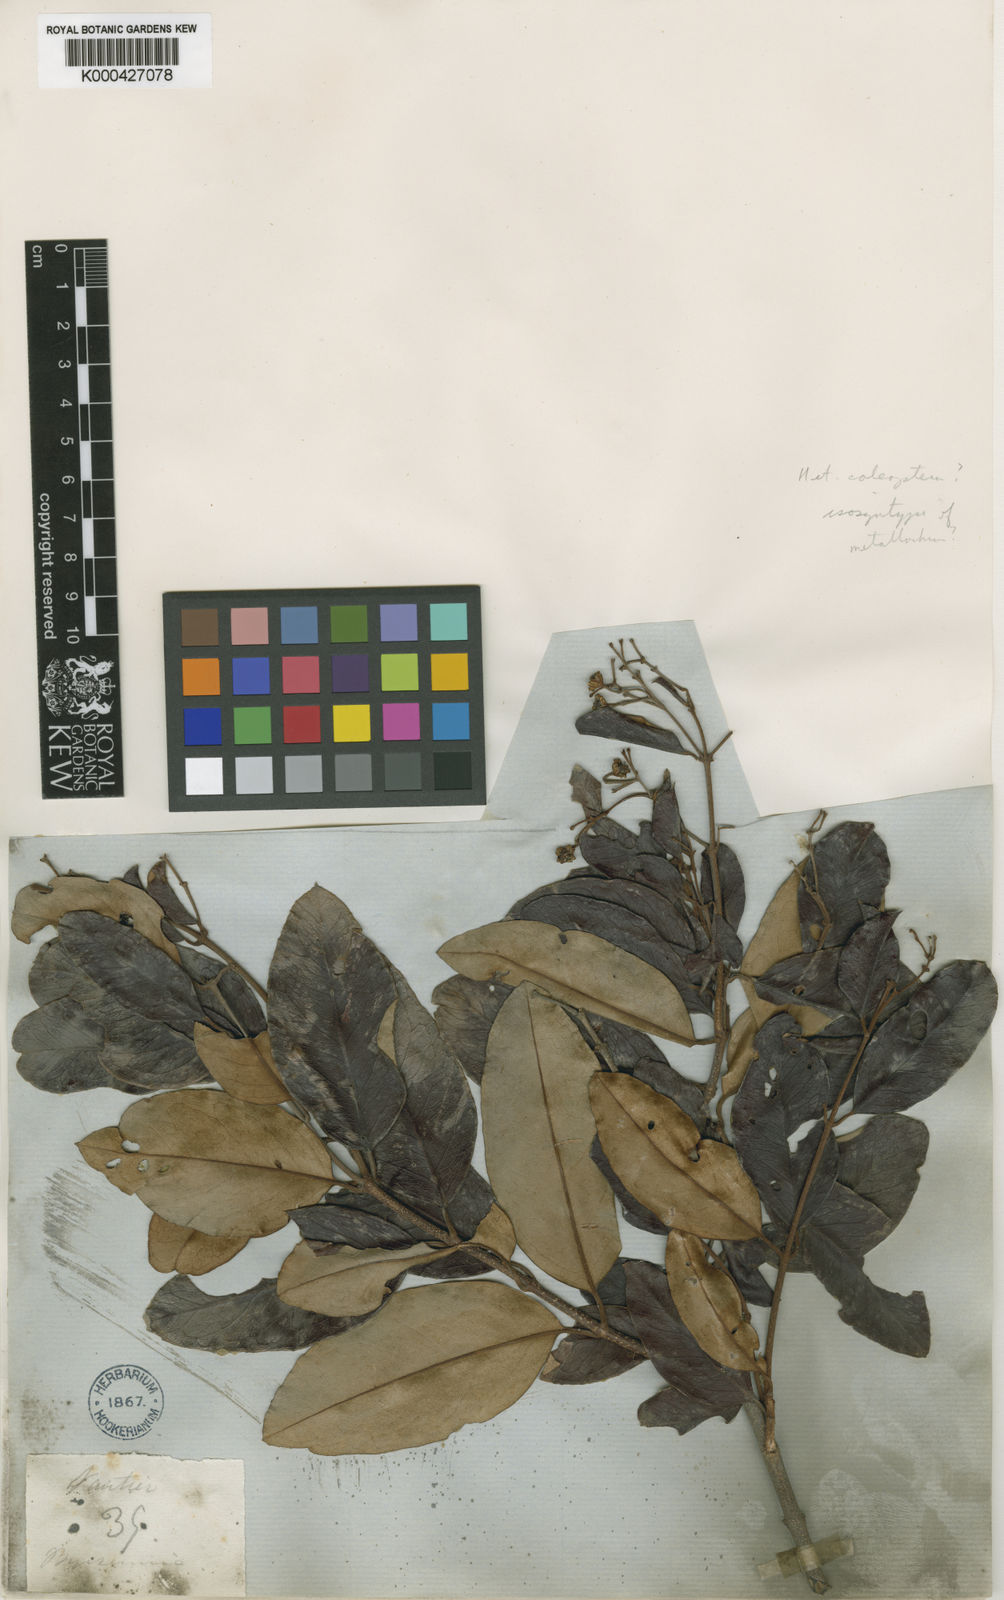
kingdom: Plantae
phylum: Tracheophyta
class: Magnoliopsida
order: Malpighiales
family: Malpighiaceae
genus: Heteropterys
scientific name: Heteropterys aenea
